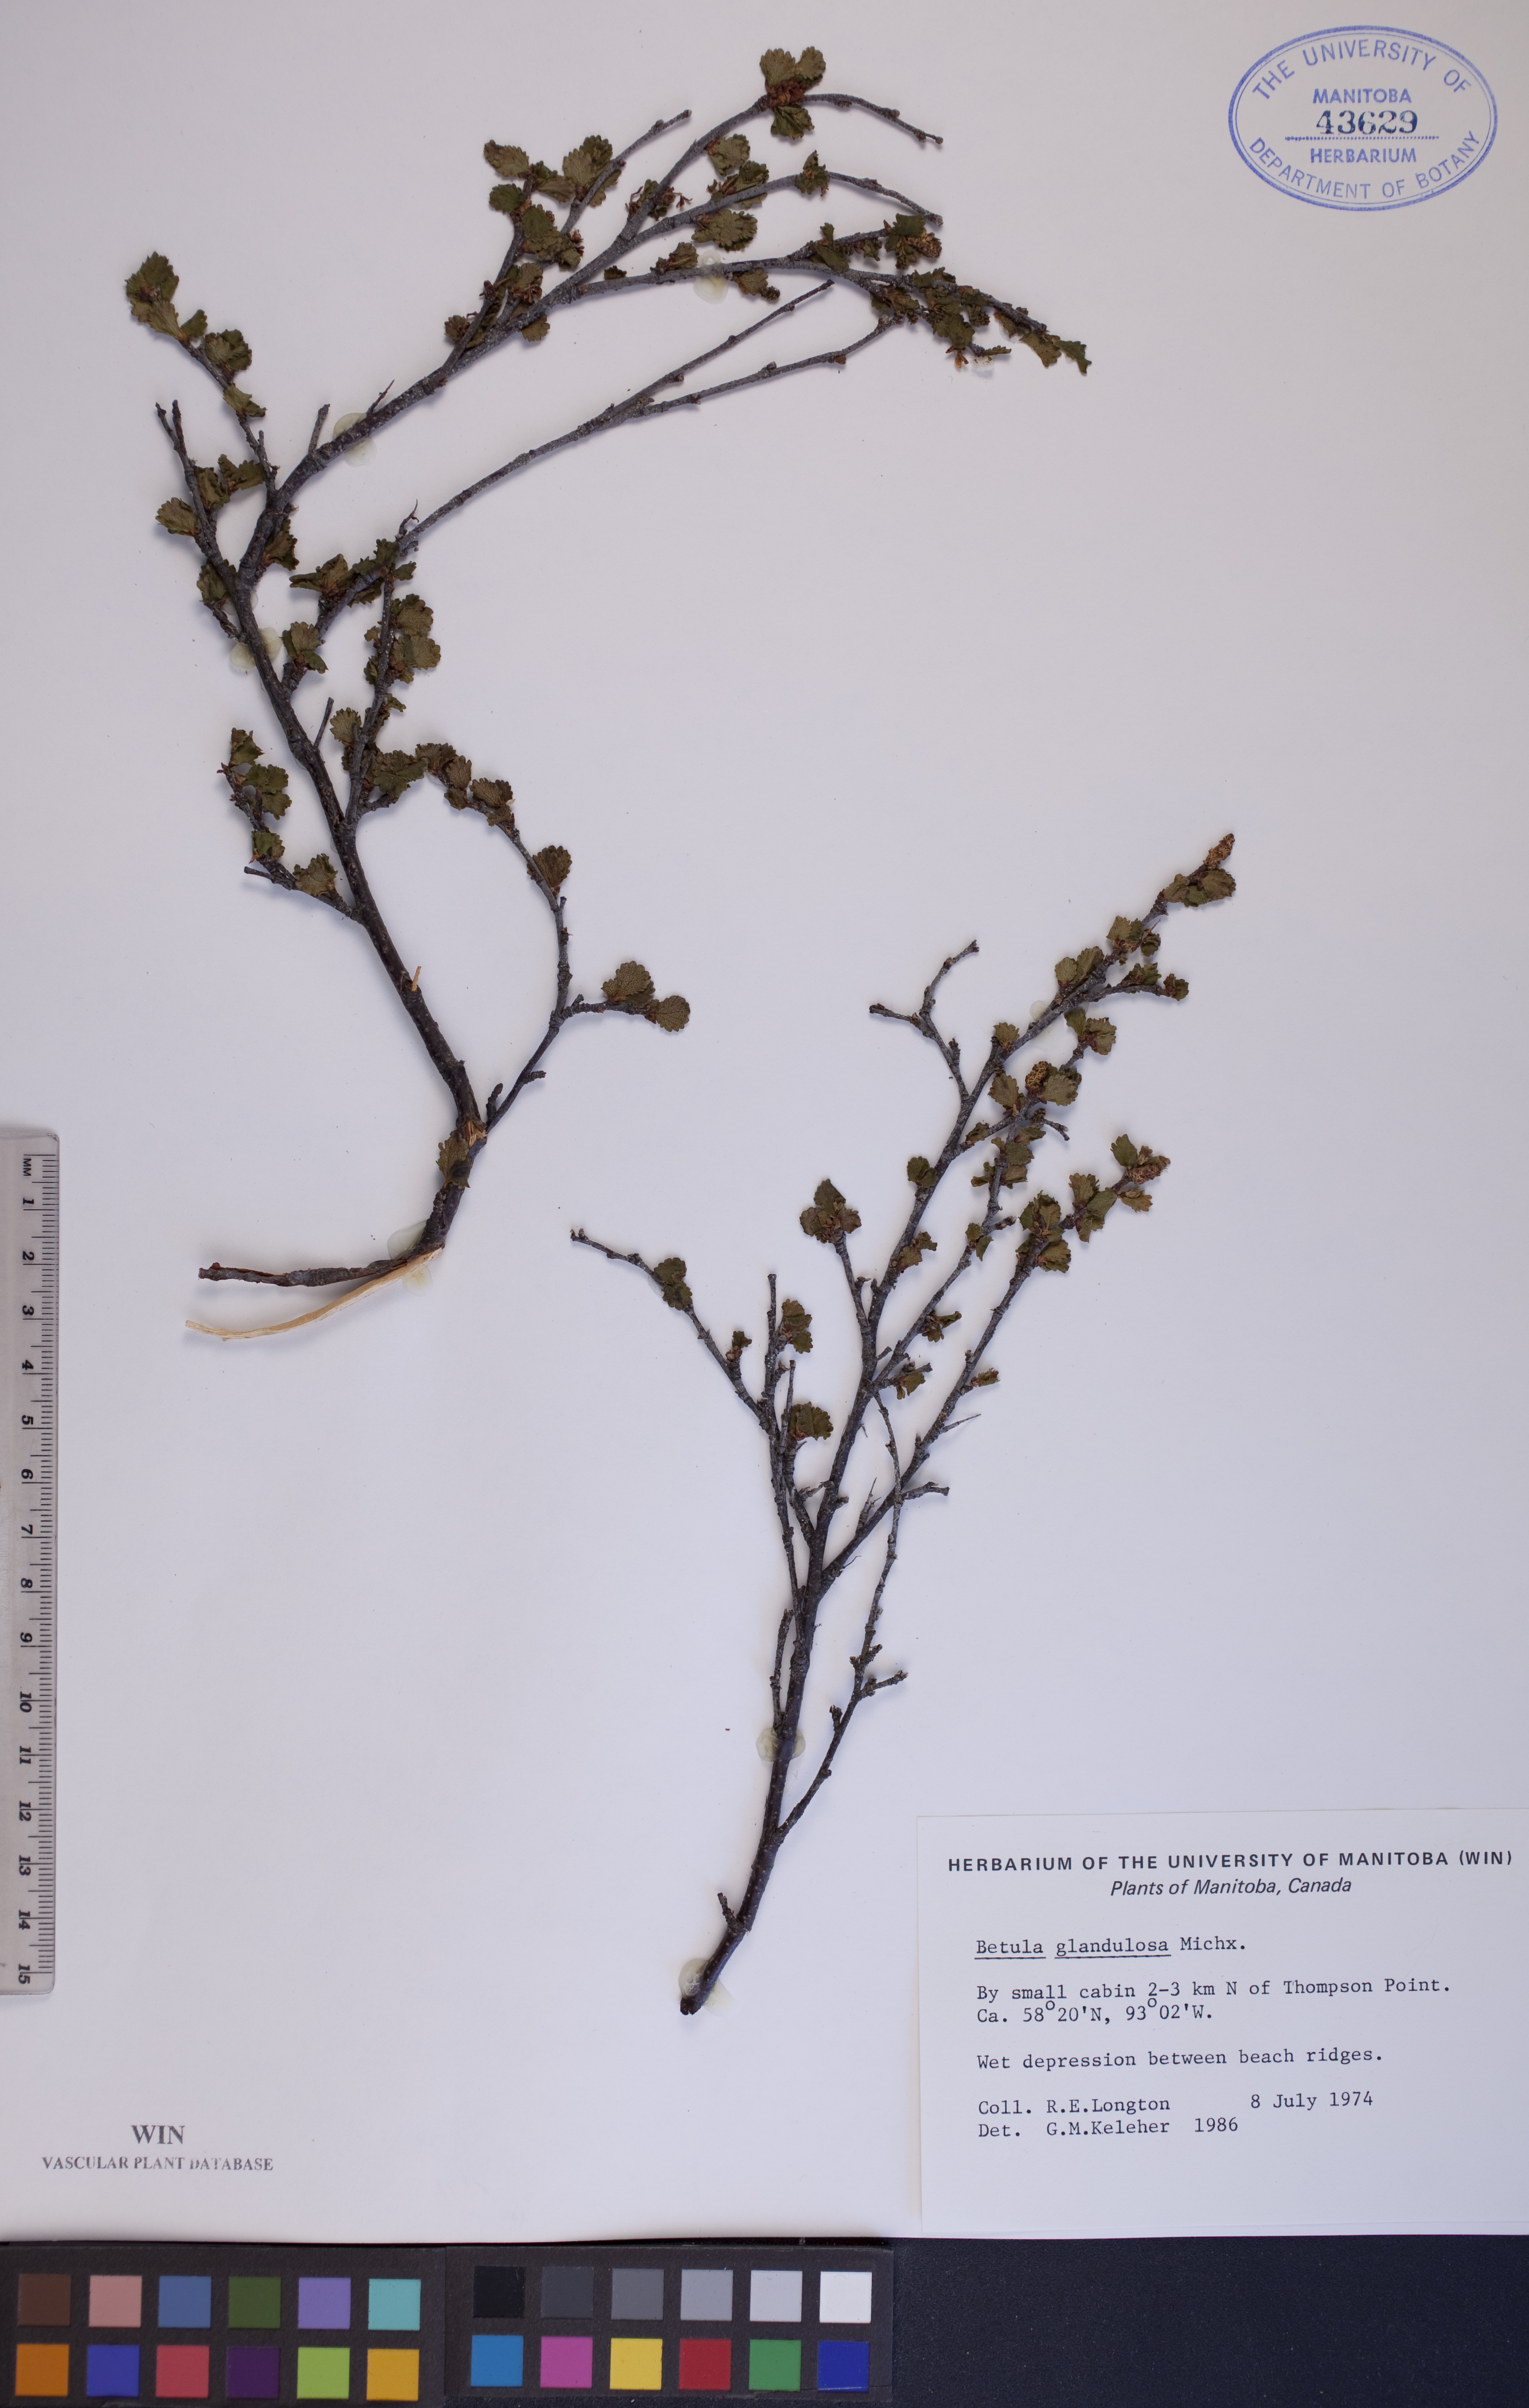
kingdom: Plantae
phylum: Tracheophyta
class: Magnoliopsida
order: Fagales
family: Betulaceae
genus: Betula
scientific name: Betula glandulosa
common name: Dwarf birch
